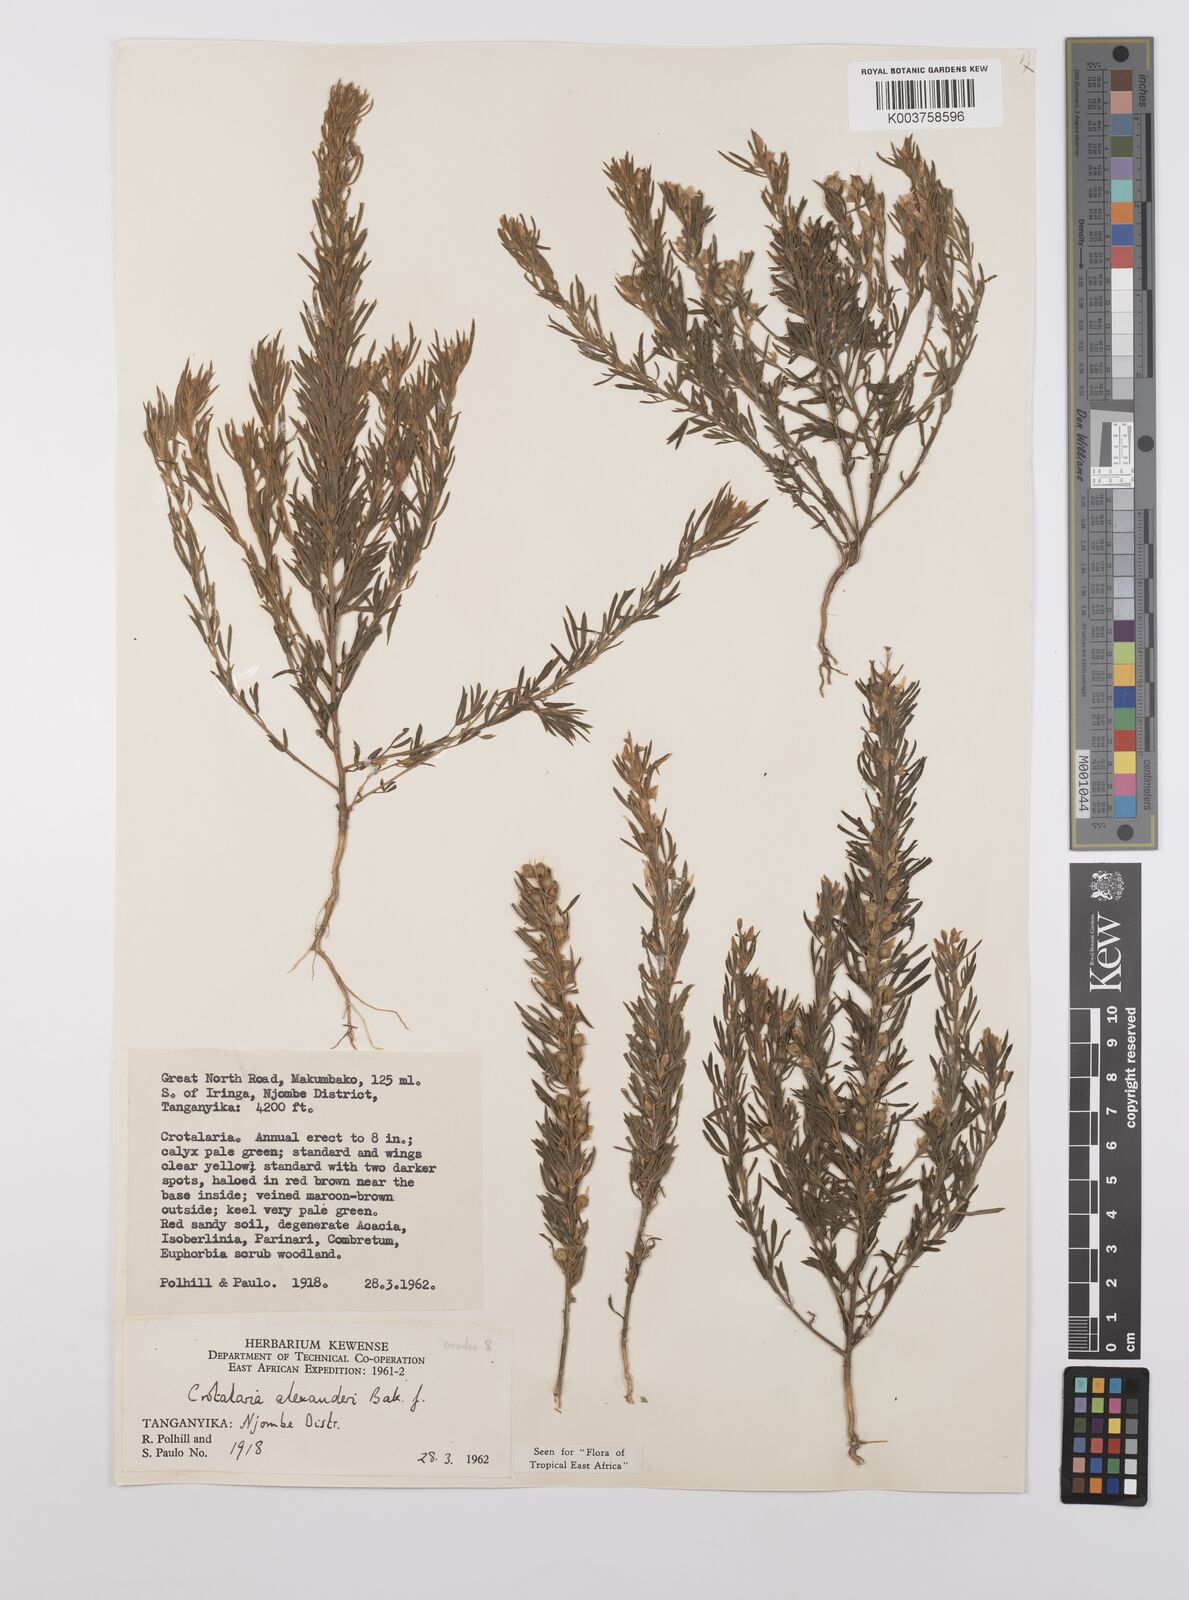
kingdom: Plantae
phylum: Tracheophyta
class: Magnoliopsida
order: Fabales
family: Fabaceae
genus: Crotalaria
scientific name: Crotalaria alexandri
